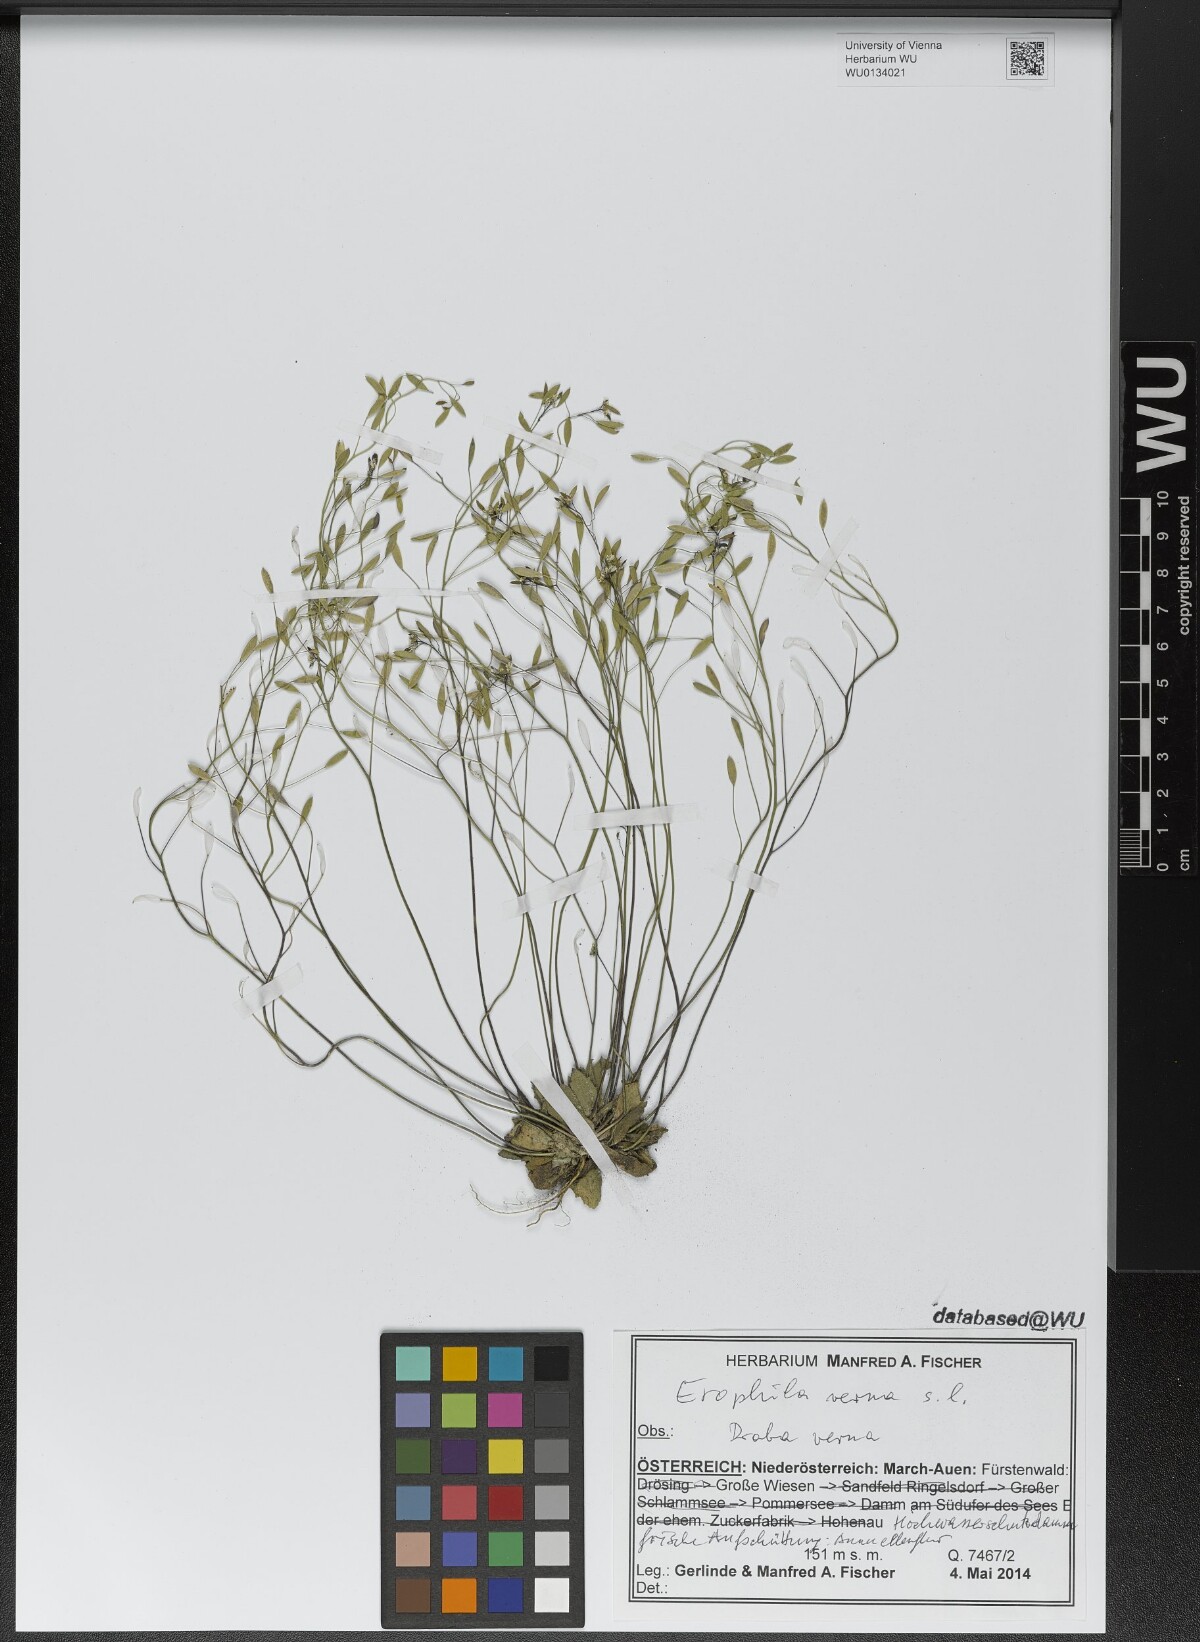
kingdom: Plantae
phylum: Tracheophyta
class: Magnoliopsida
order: Brassicales
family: Brassicaceae
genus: Draba
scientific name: Draba verna
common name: Spring draba
